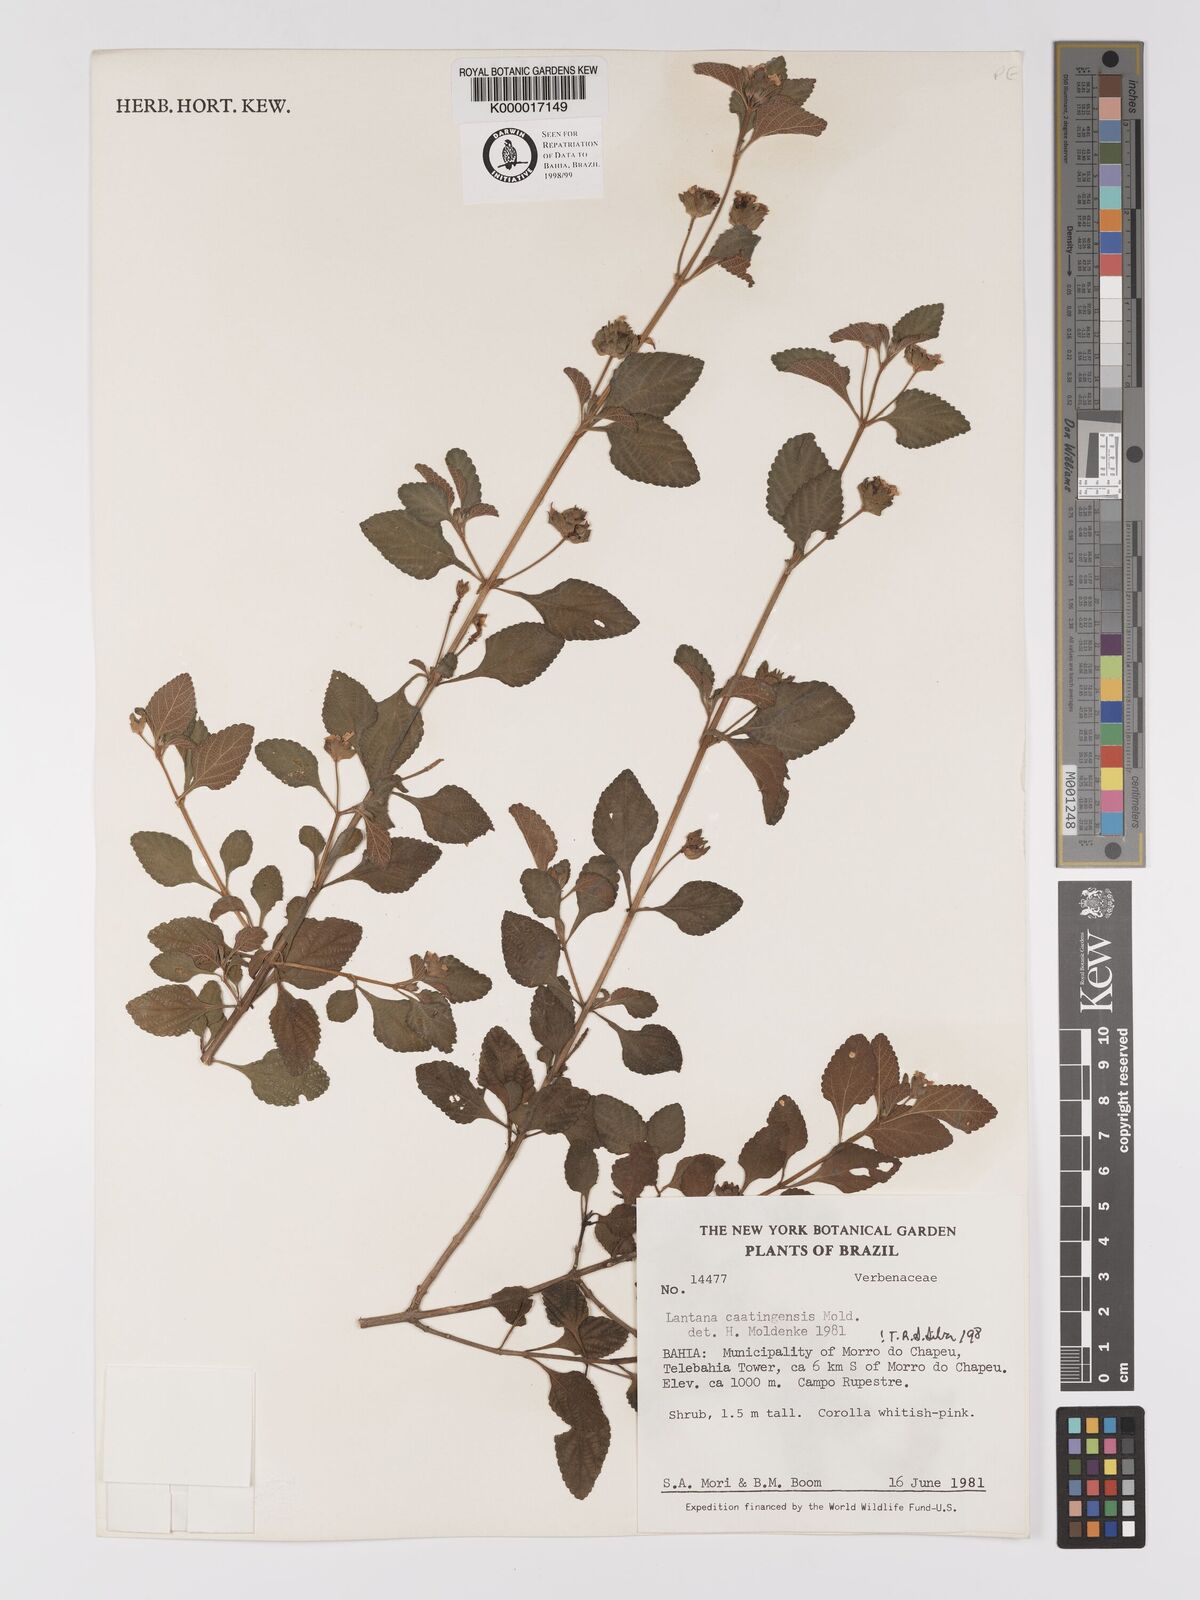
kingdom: Plantae
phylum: Tracheophyta
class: Magnoliopsida
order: Lamiales
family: Verbenaceae
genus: Lantana
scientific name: Lantana caatingensis
